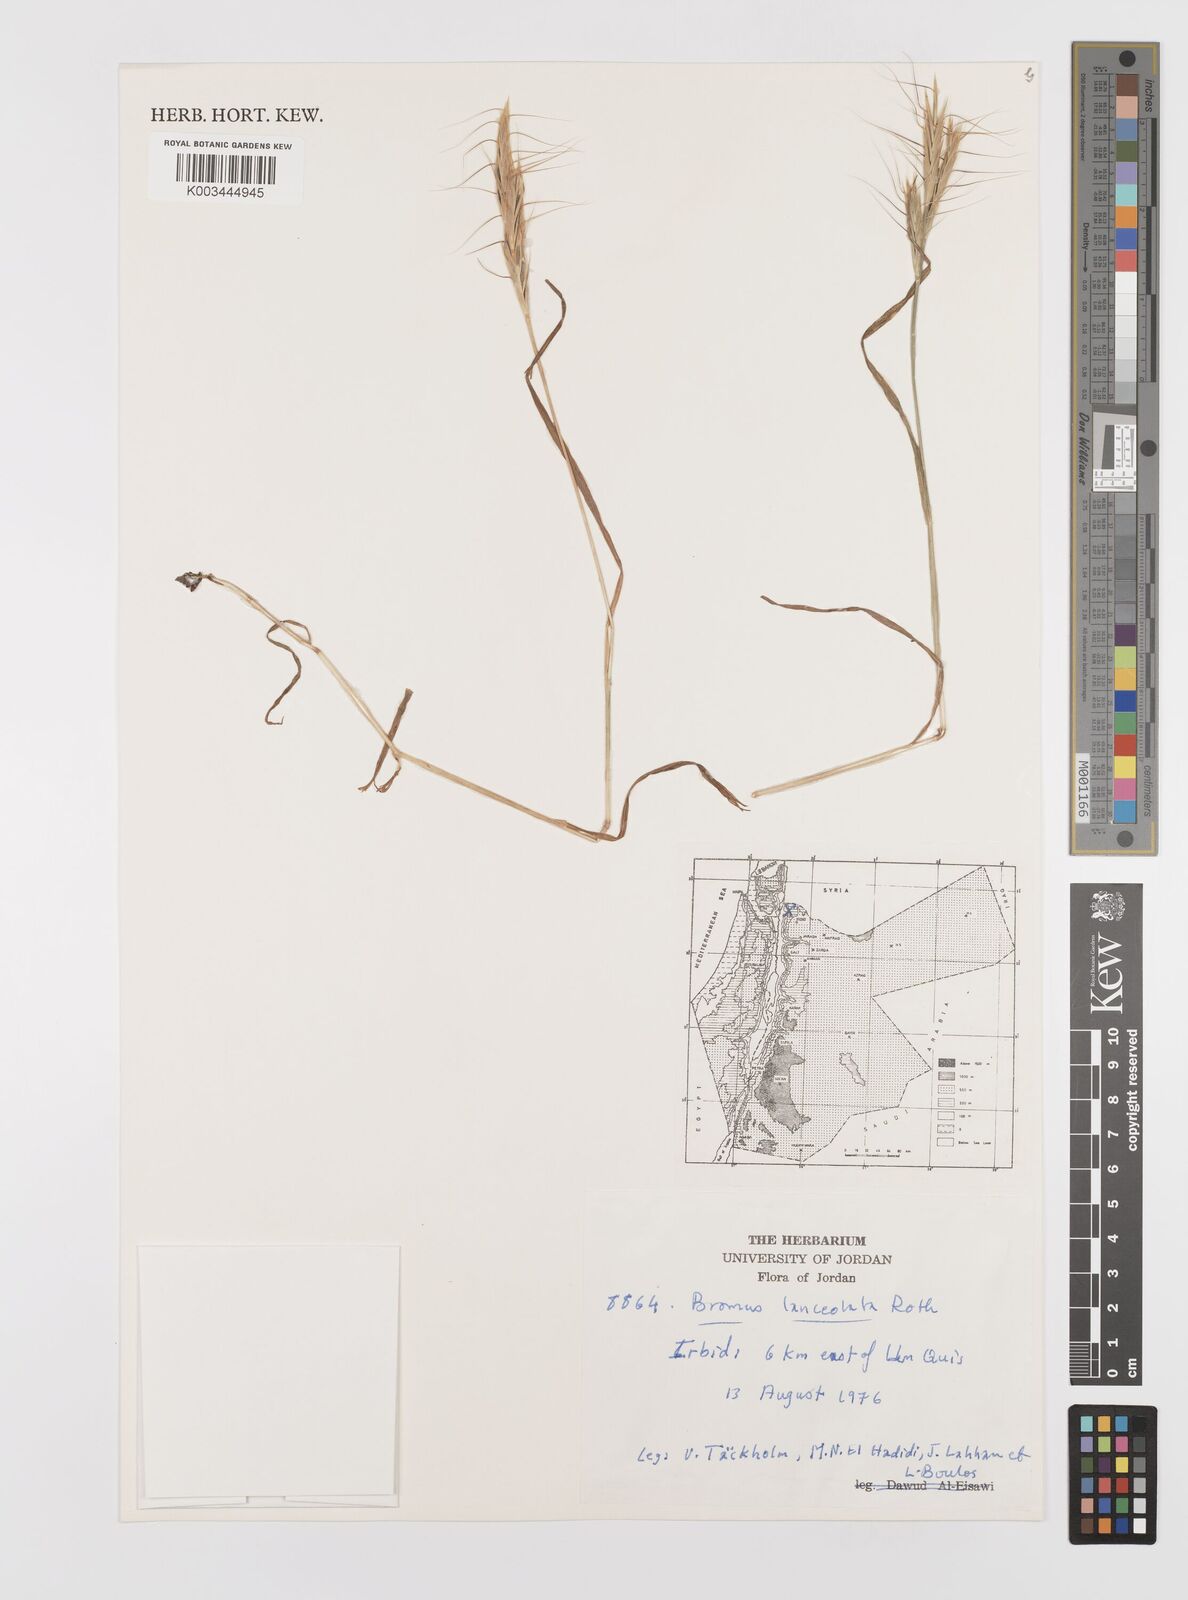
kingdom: Plantae
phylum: Tracheophyta
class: Liliopsida
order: Poales
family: Poaceae
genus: Bromus
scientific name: Bromus lanceolatus
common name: Mediterranean brome
